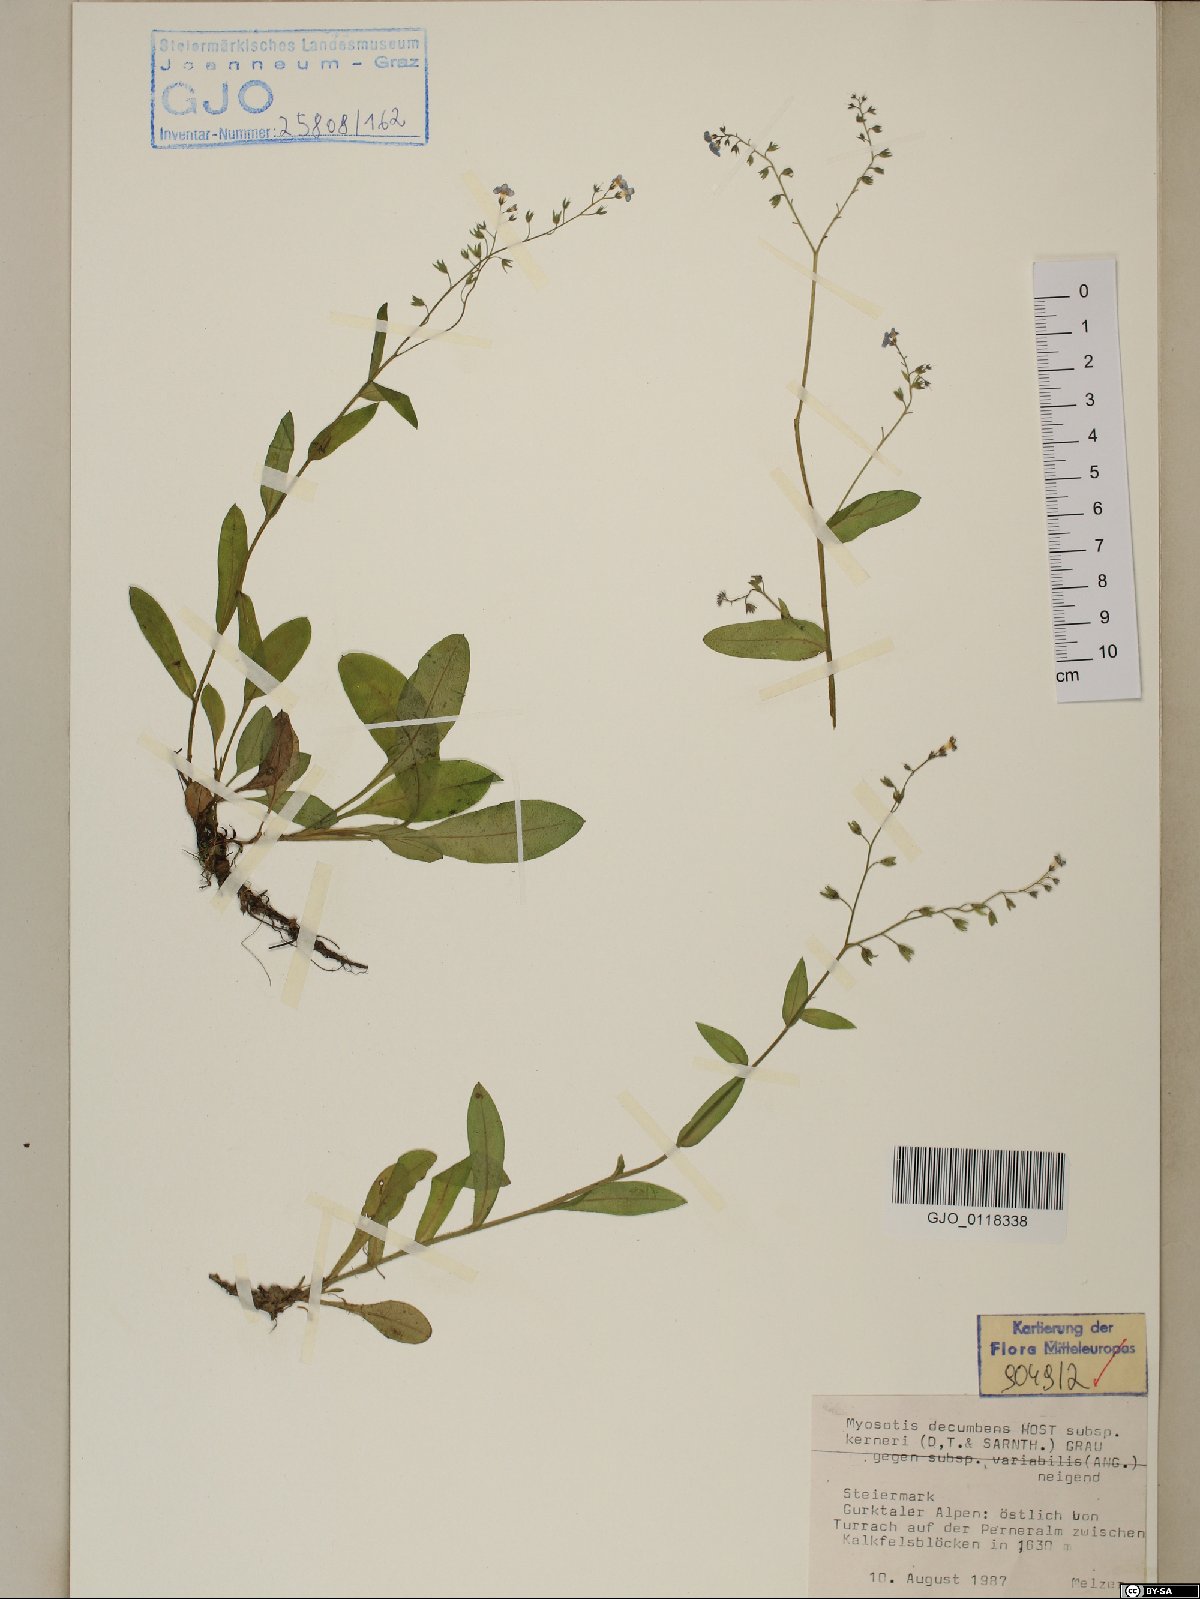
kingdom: Plantae
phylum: Tracheophyta
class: Magnoliopsida
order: Boraginales
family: Boraginaceae
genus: Myosotis
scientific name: Myosotis decumbens
